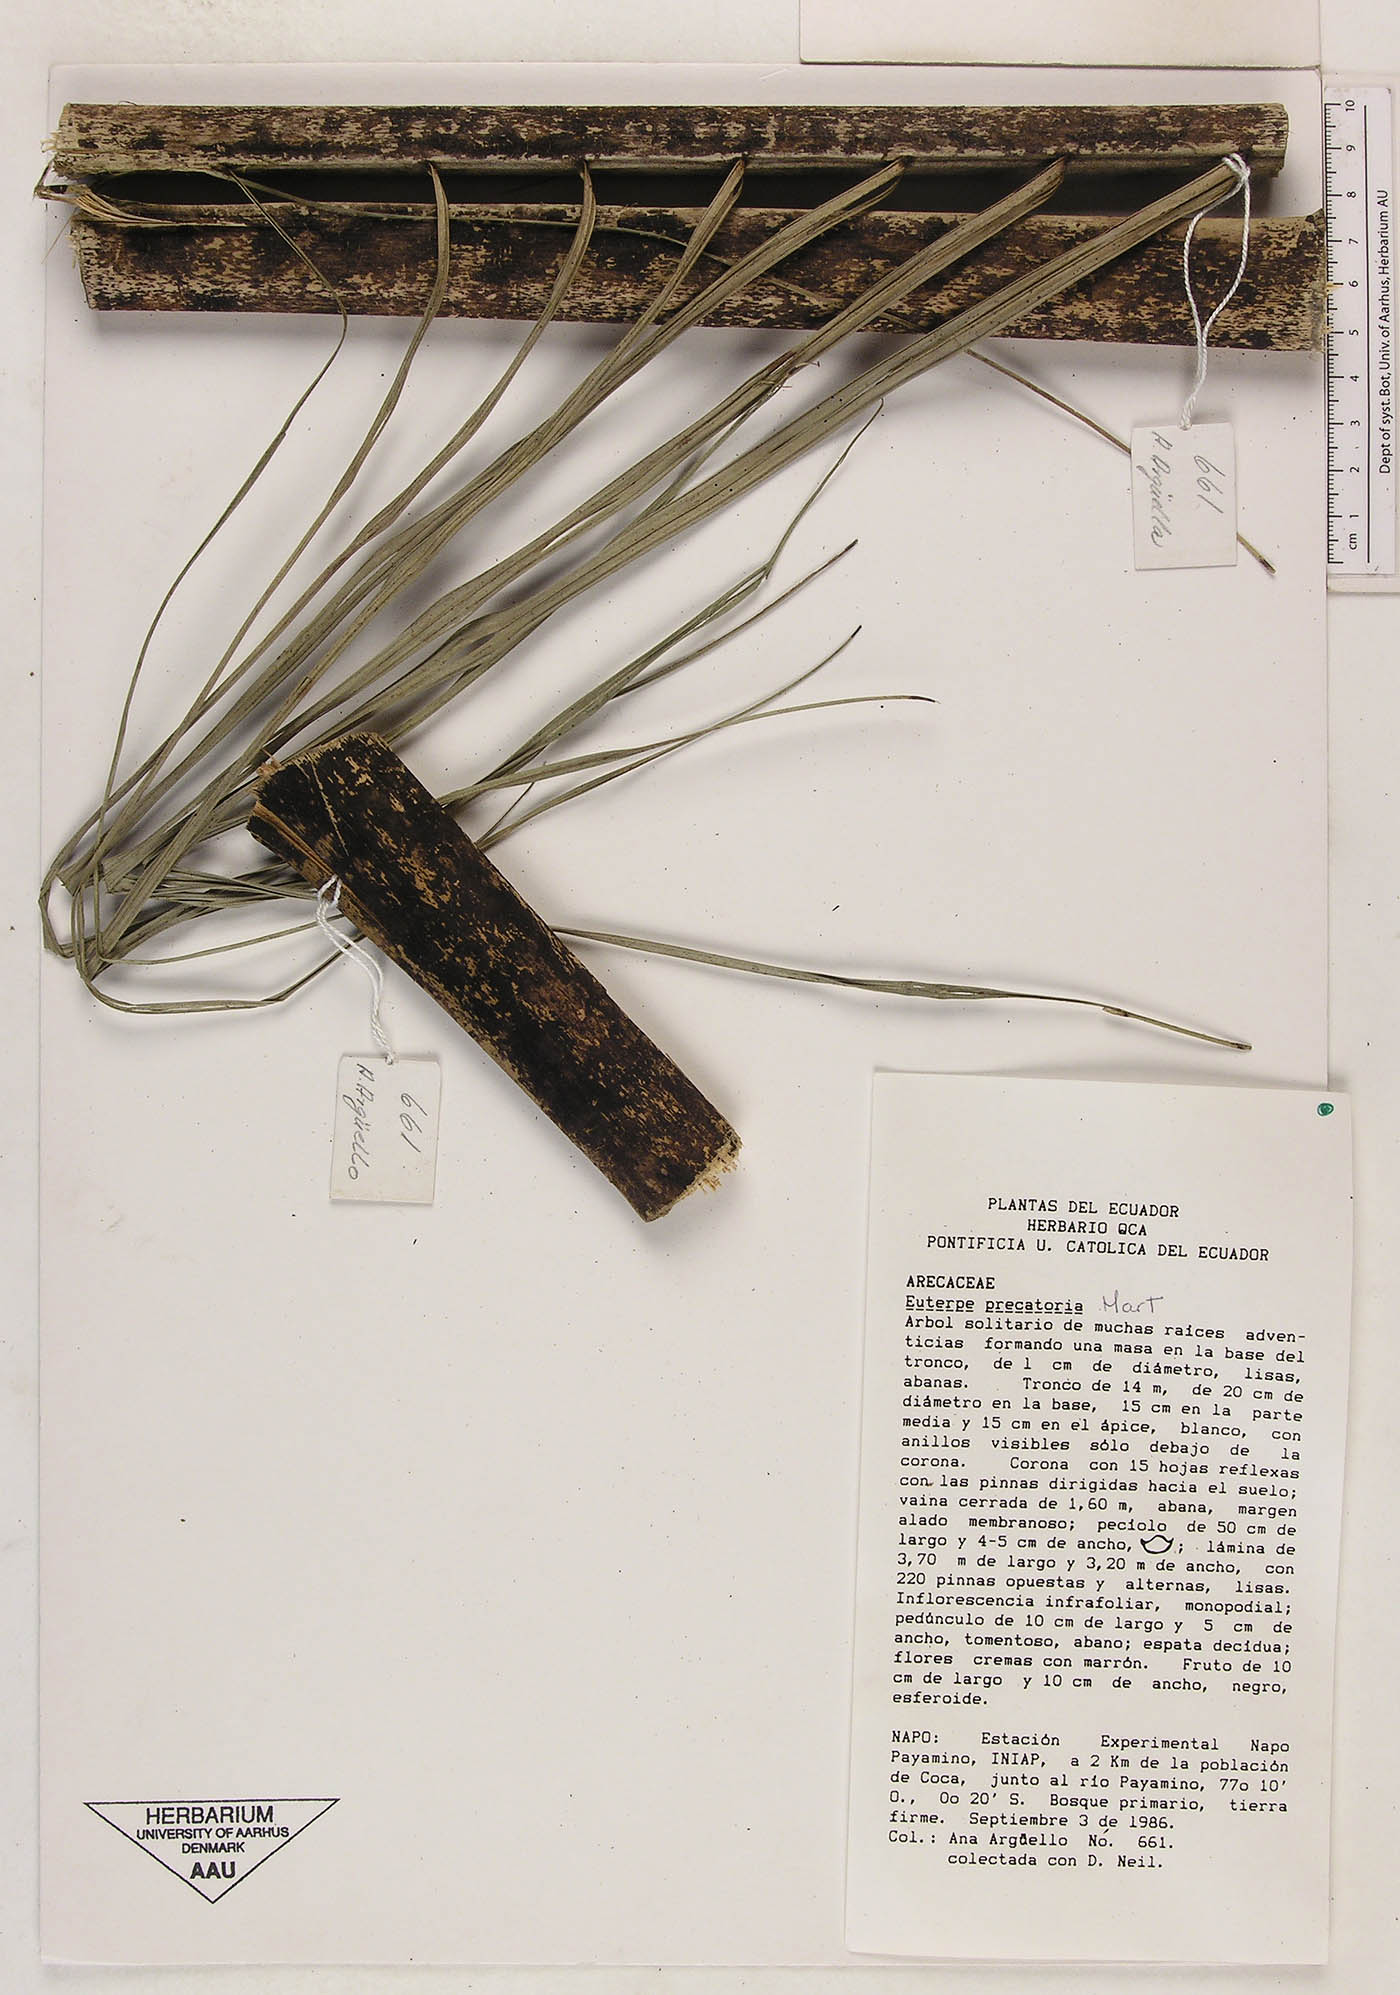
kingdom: Plantae
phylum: Tracheophyta
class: Liliopsida
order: Arecales
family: Arecaceae
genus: Euterpe
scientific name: Euterpe precatoria
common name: Mountain-cabbage
